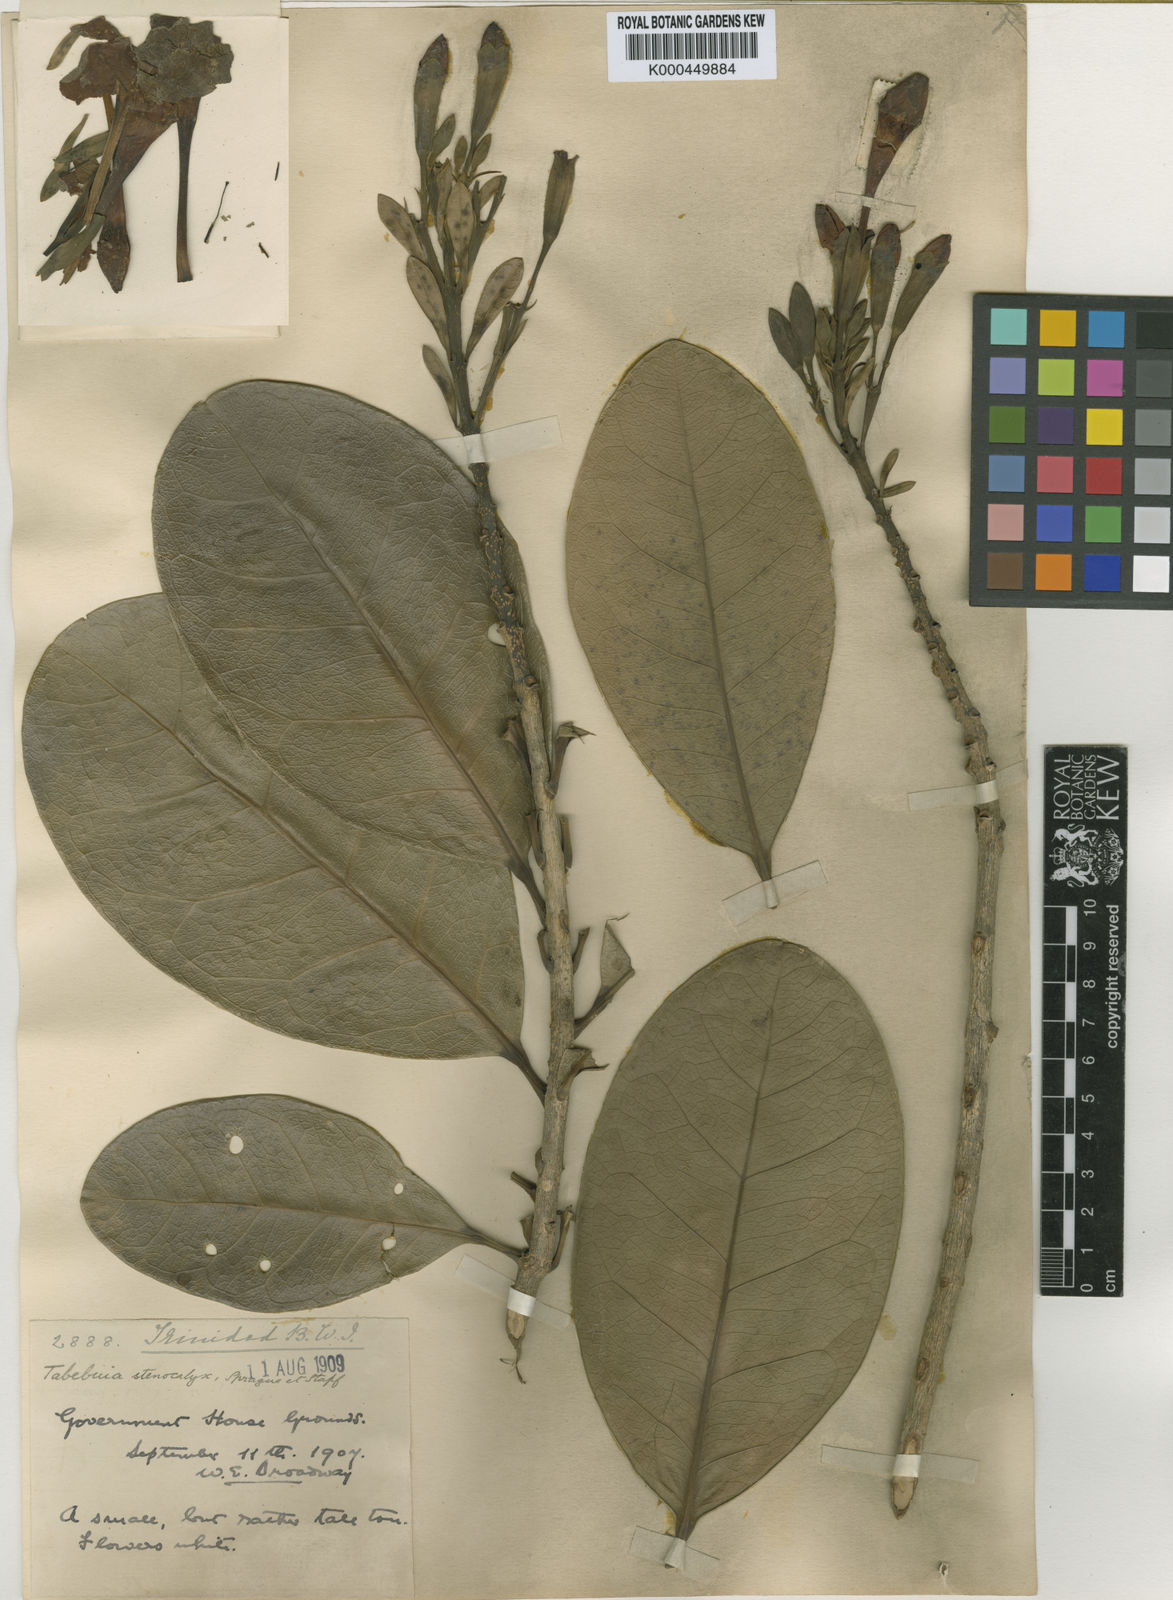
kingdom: Plantae
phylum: Tracheophyta
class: Magnoliopsida
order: Lamiales
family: Bignoniaceae
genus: Tabebuia
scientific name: Tabebuia stenocalyx
